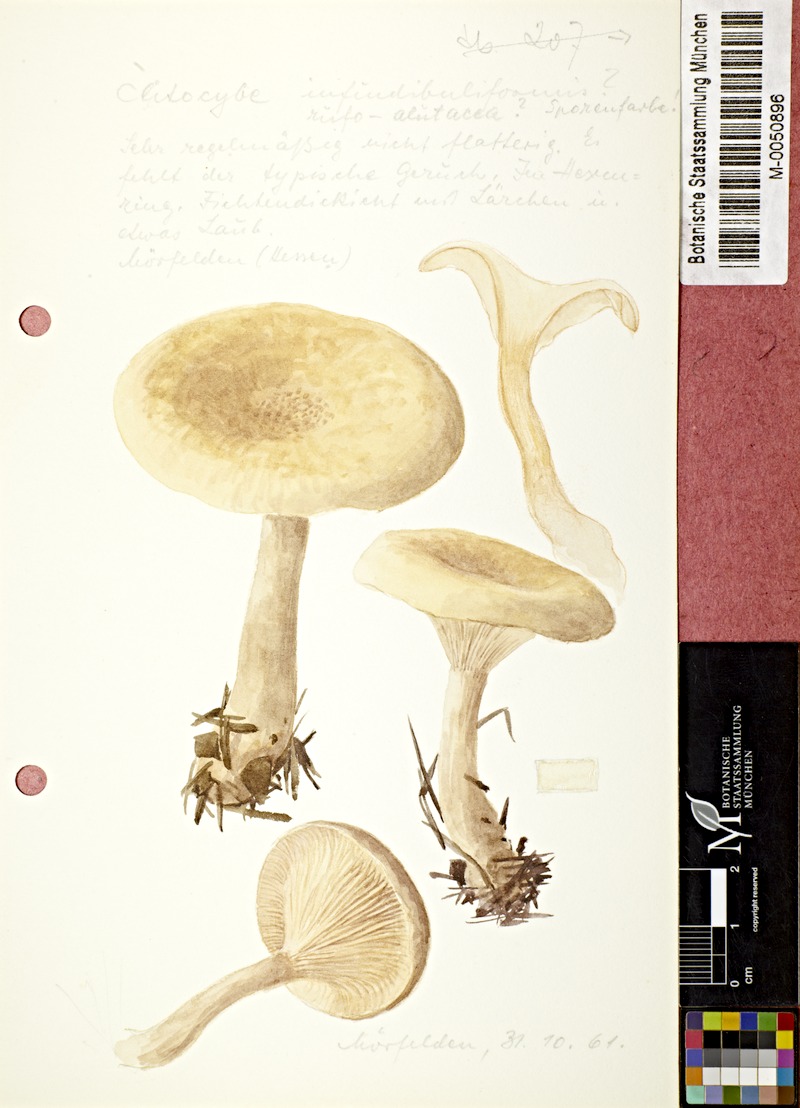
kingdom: Fungi
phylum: Basidiomycota
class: Agaricomycetes
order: Agaricales
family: Tricholomataceae
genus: Infundibulicybe
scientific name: Infundibulicybe gibba
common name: Common funnel
